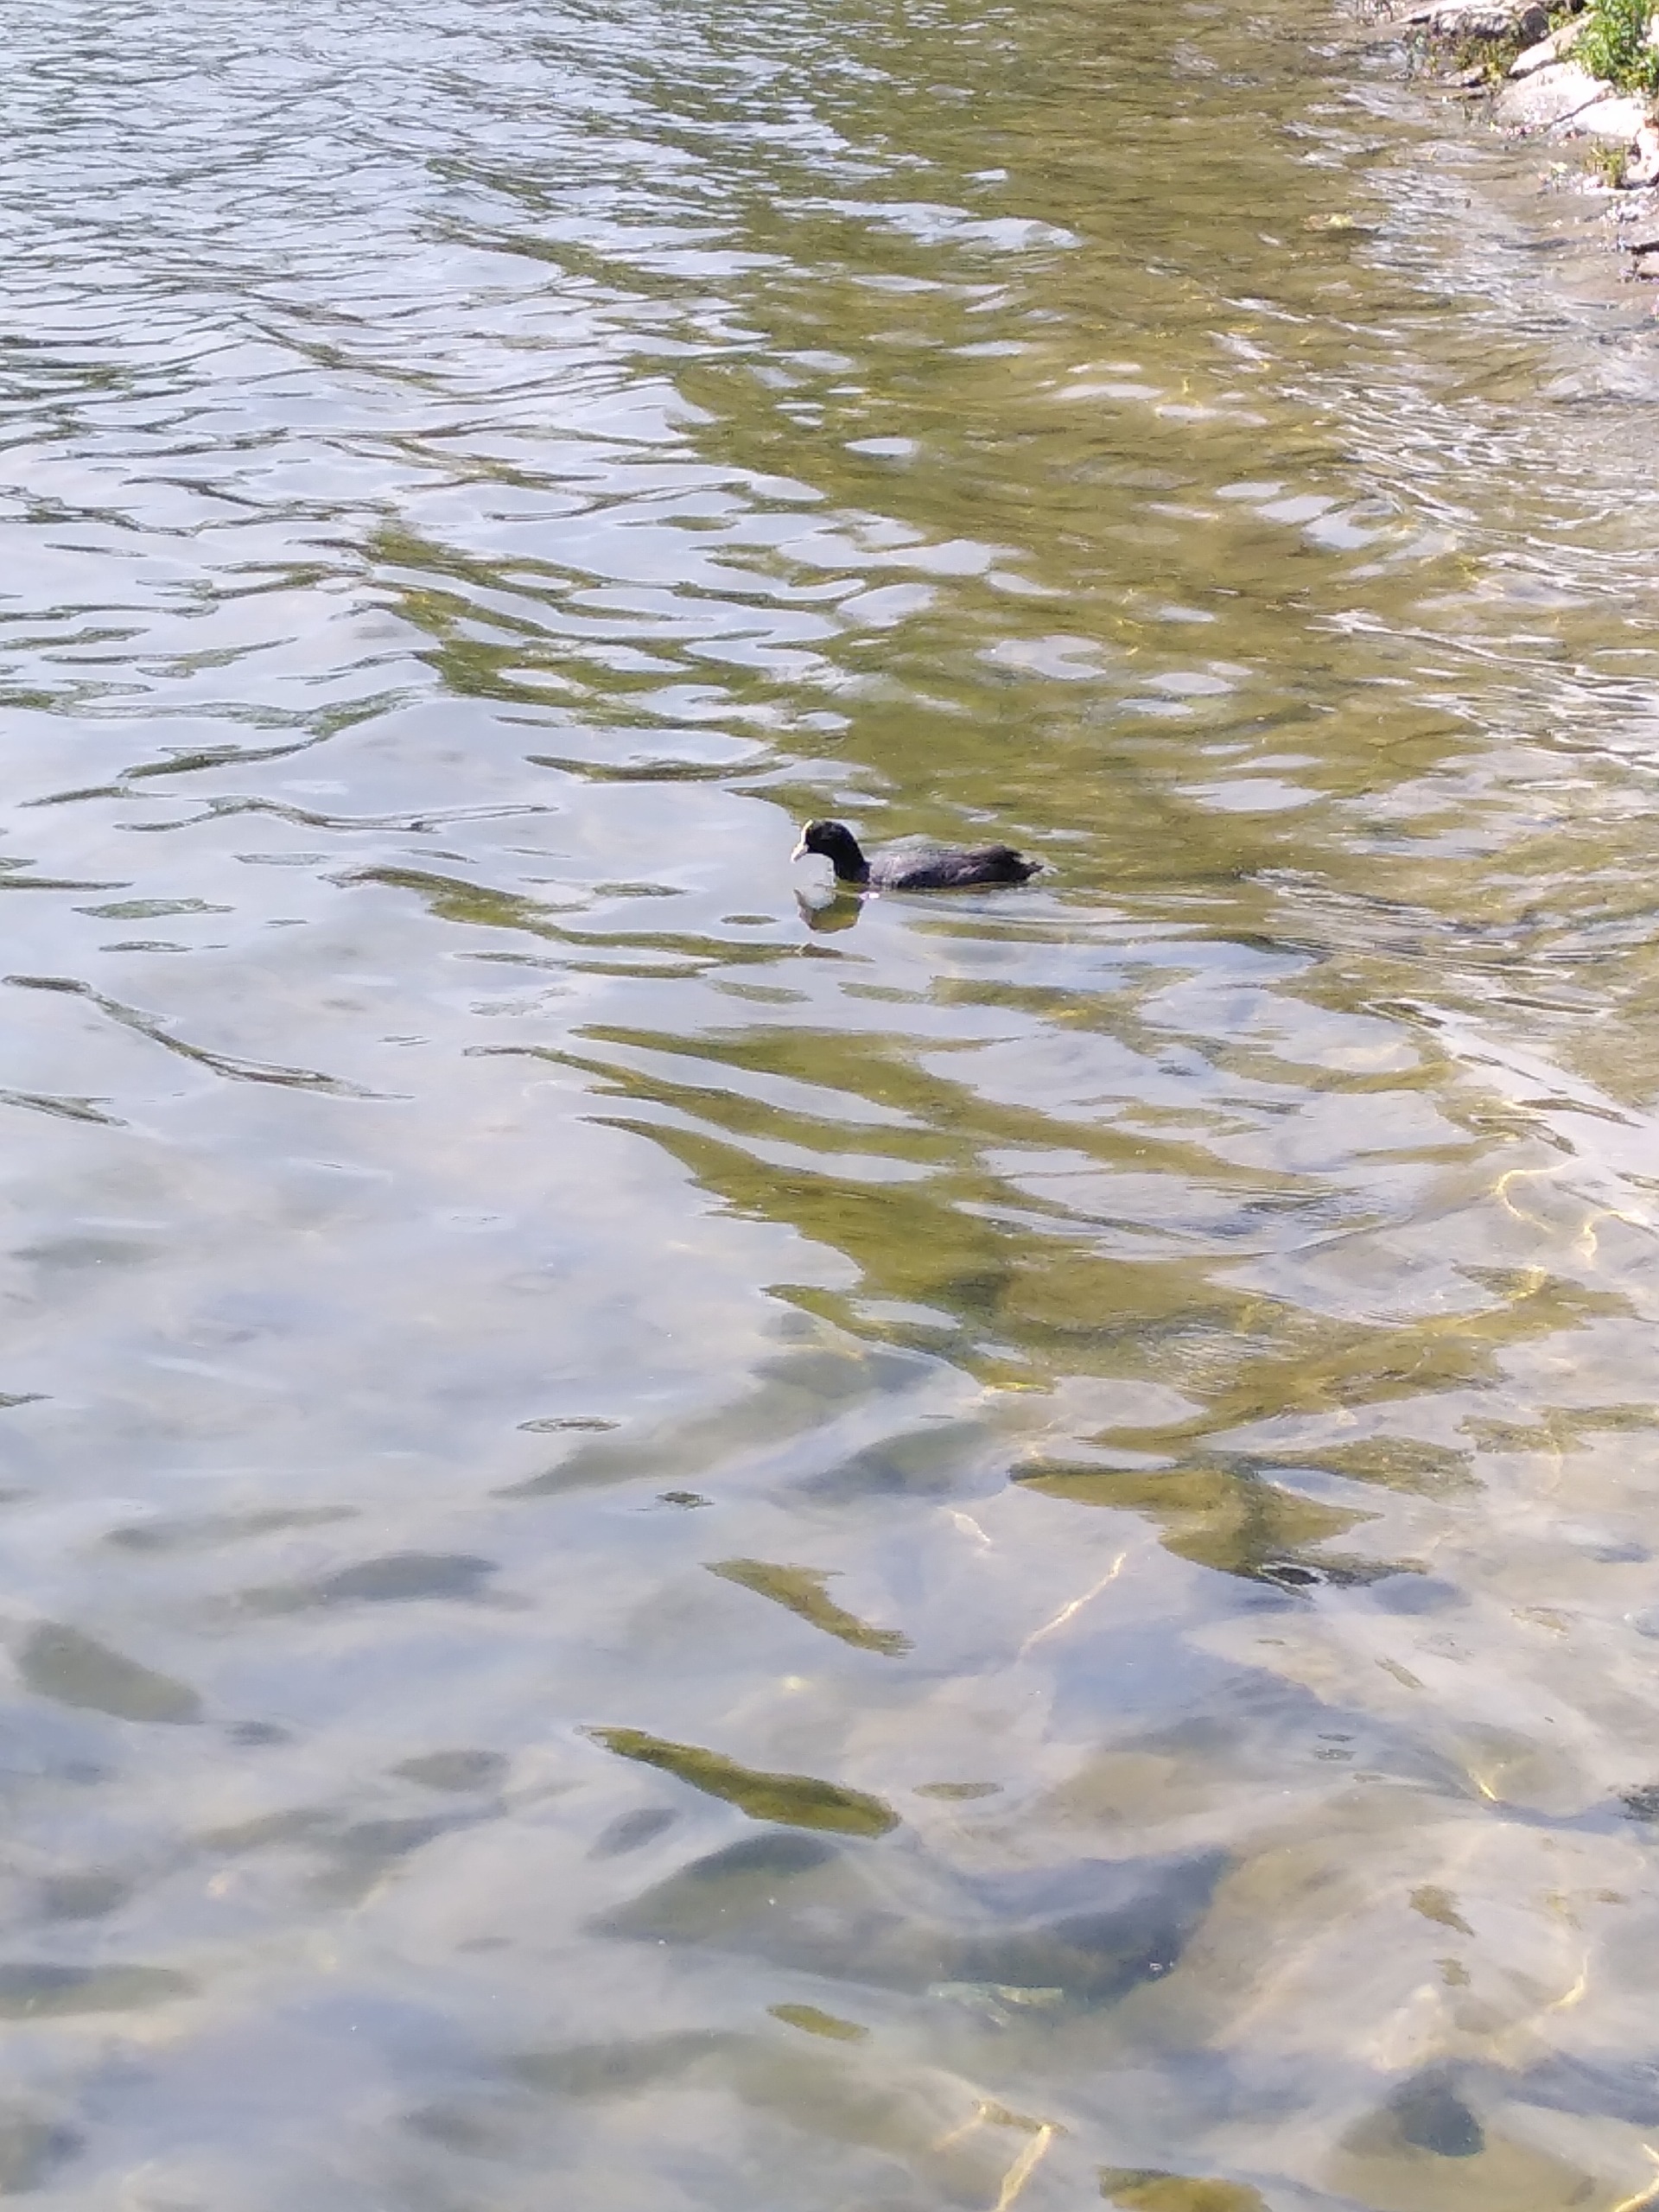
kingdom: Animalia
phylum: Chordata
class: Aves
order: Gruiformes
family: Rallidae
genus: Fulica
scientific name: Fulica atra
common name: Blishøne
